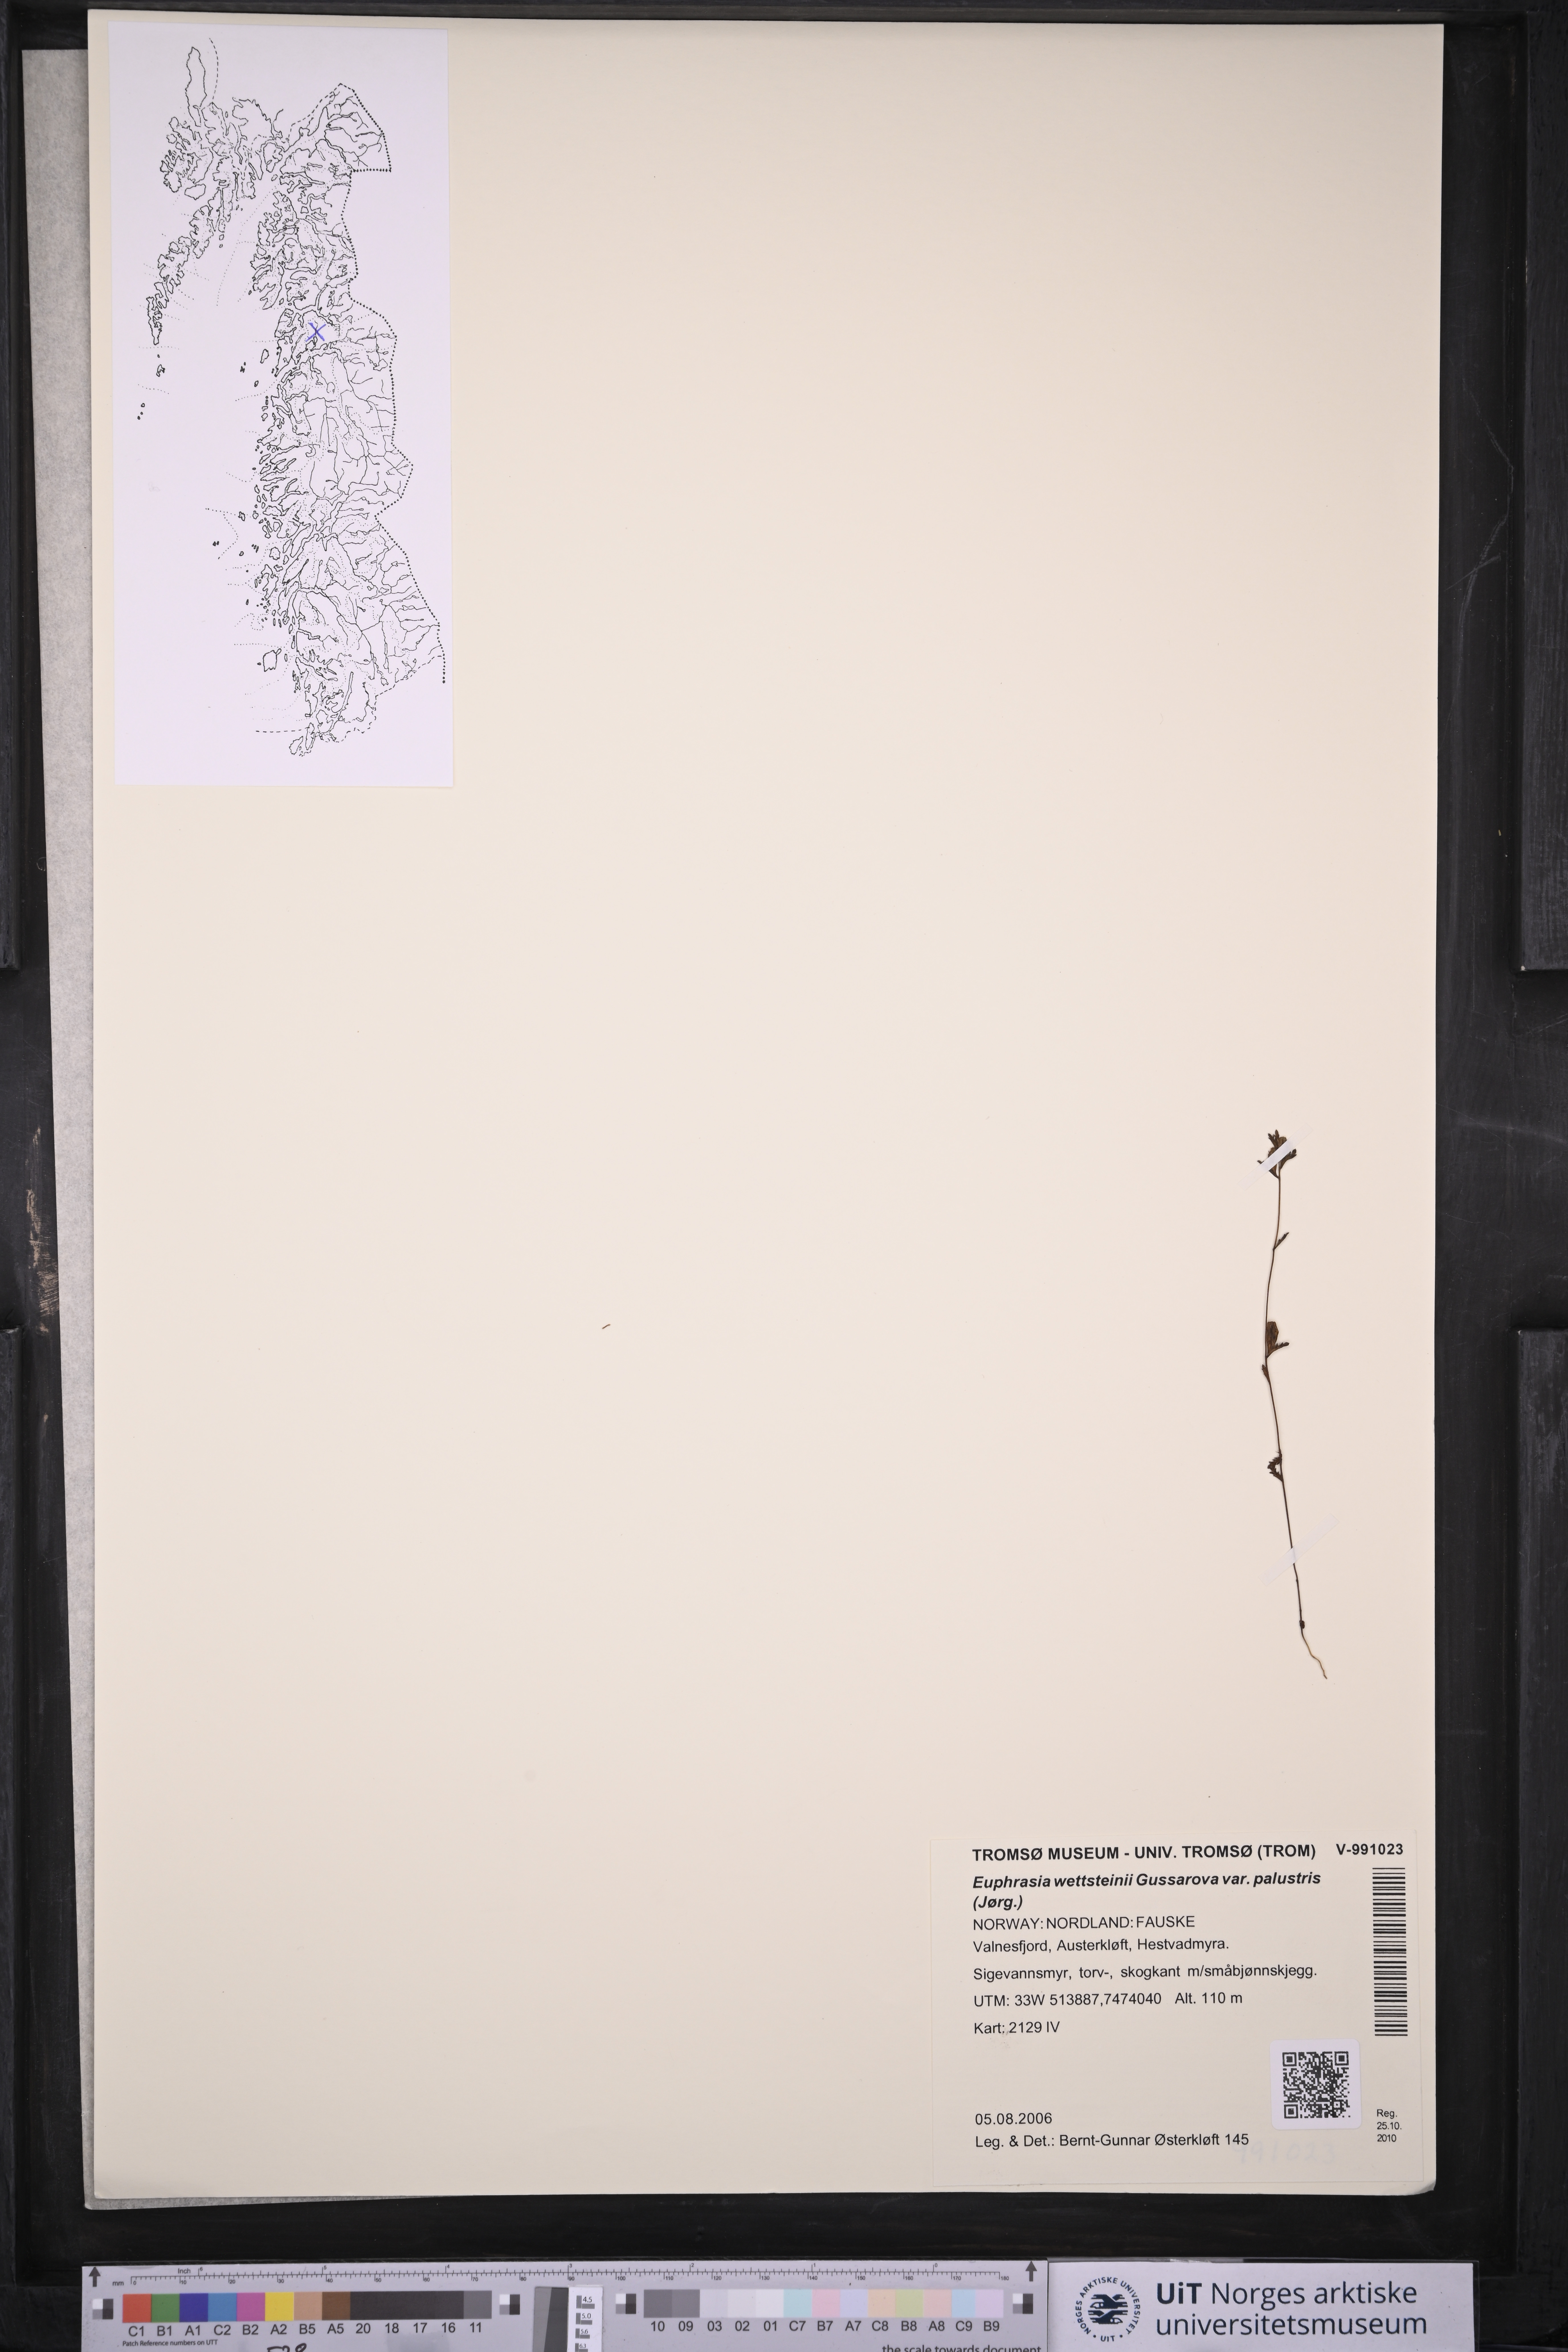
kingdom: Plantae
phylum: Tracheophyta
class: Magnoliopsida
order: Lamiales
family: Orobanchaceae
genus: Euphrasia
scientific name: Euphrasia wettsteinii
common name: Wettstein's eyebright
